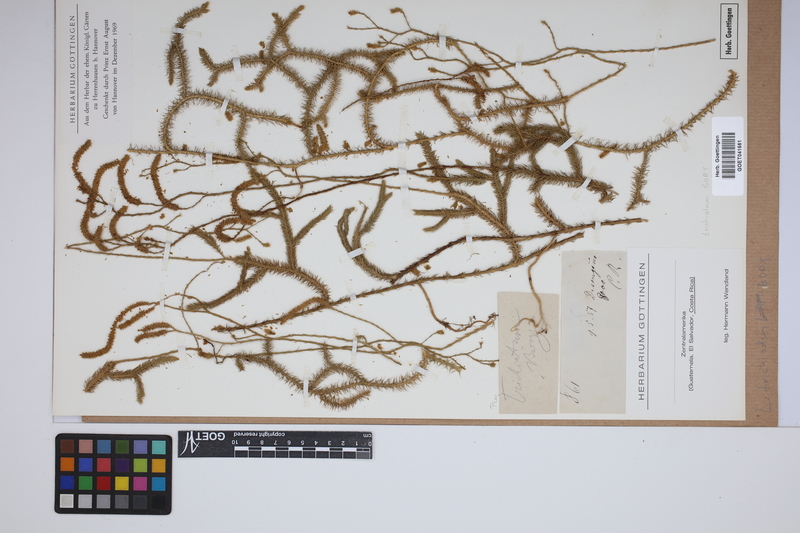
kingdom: Plantae
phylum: Tracheophyta
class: Lycopodiopsida
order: Lycopodiales
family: Lycopodiaceae
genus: Lycopodium
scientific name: Lycopodium clavatum
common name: Stag's-horn clubmoss
